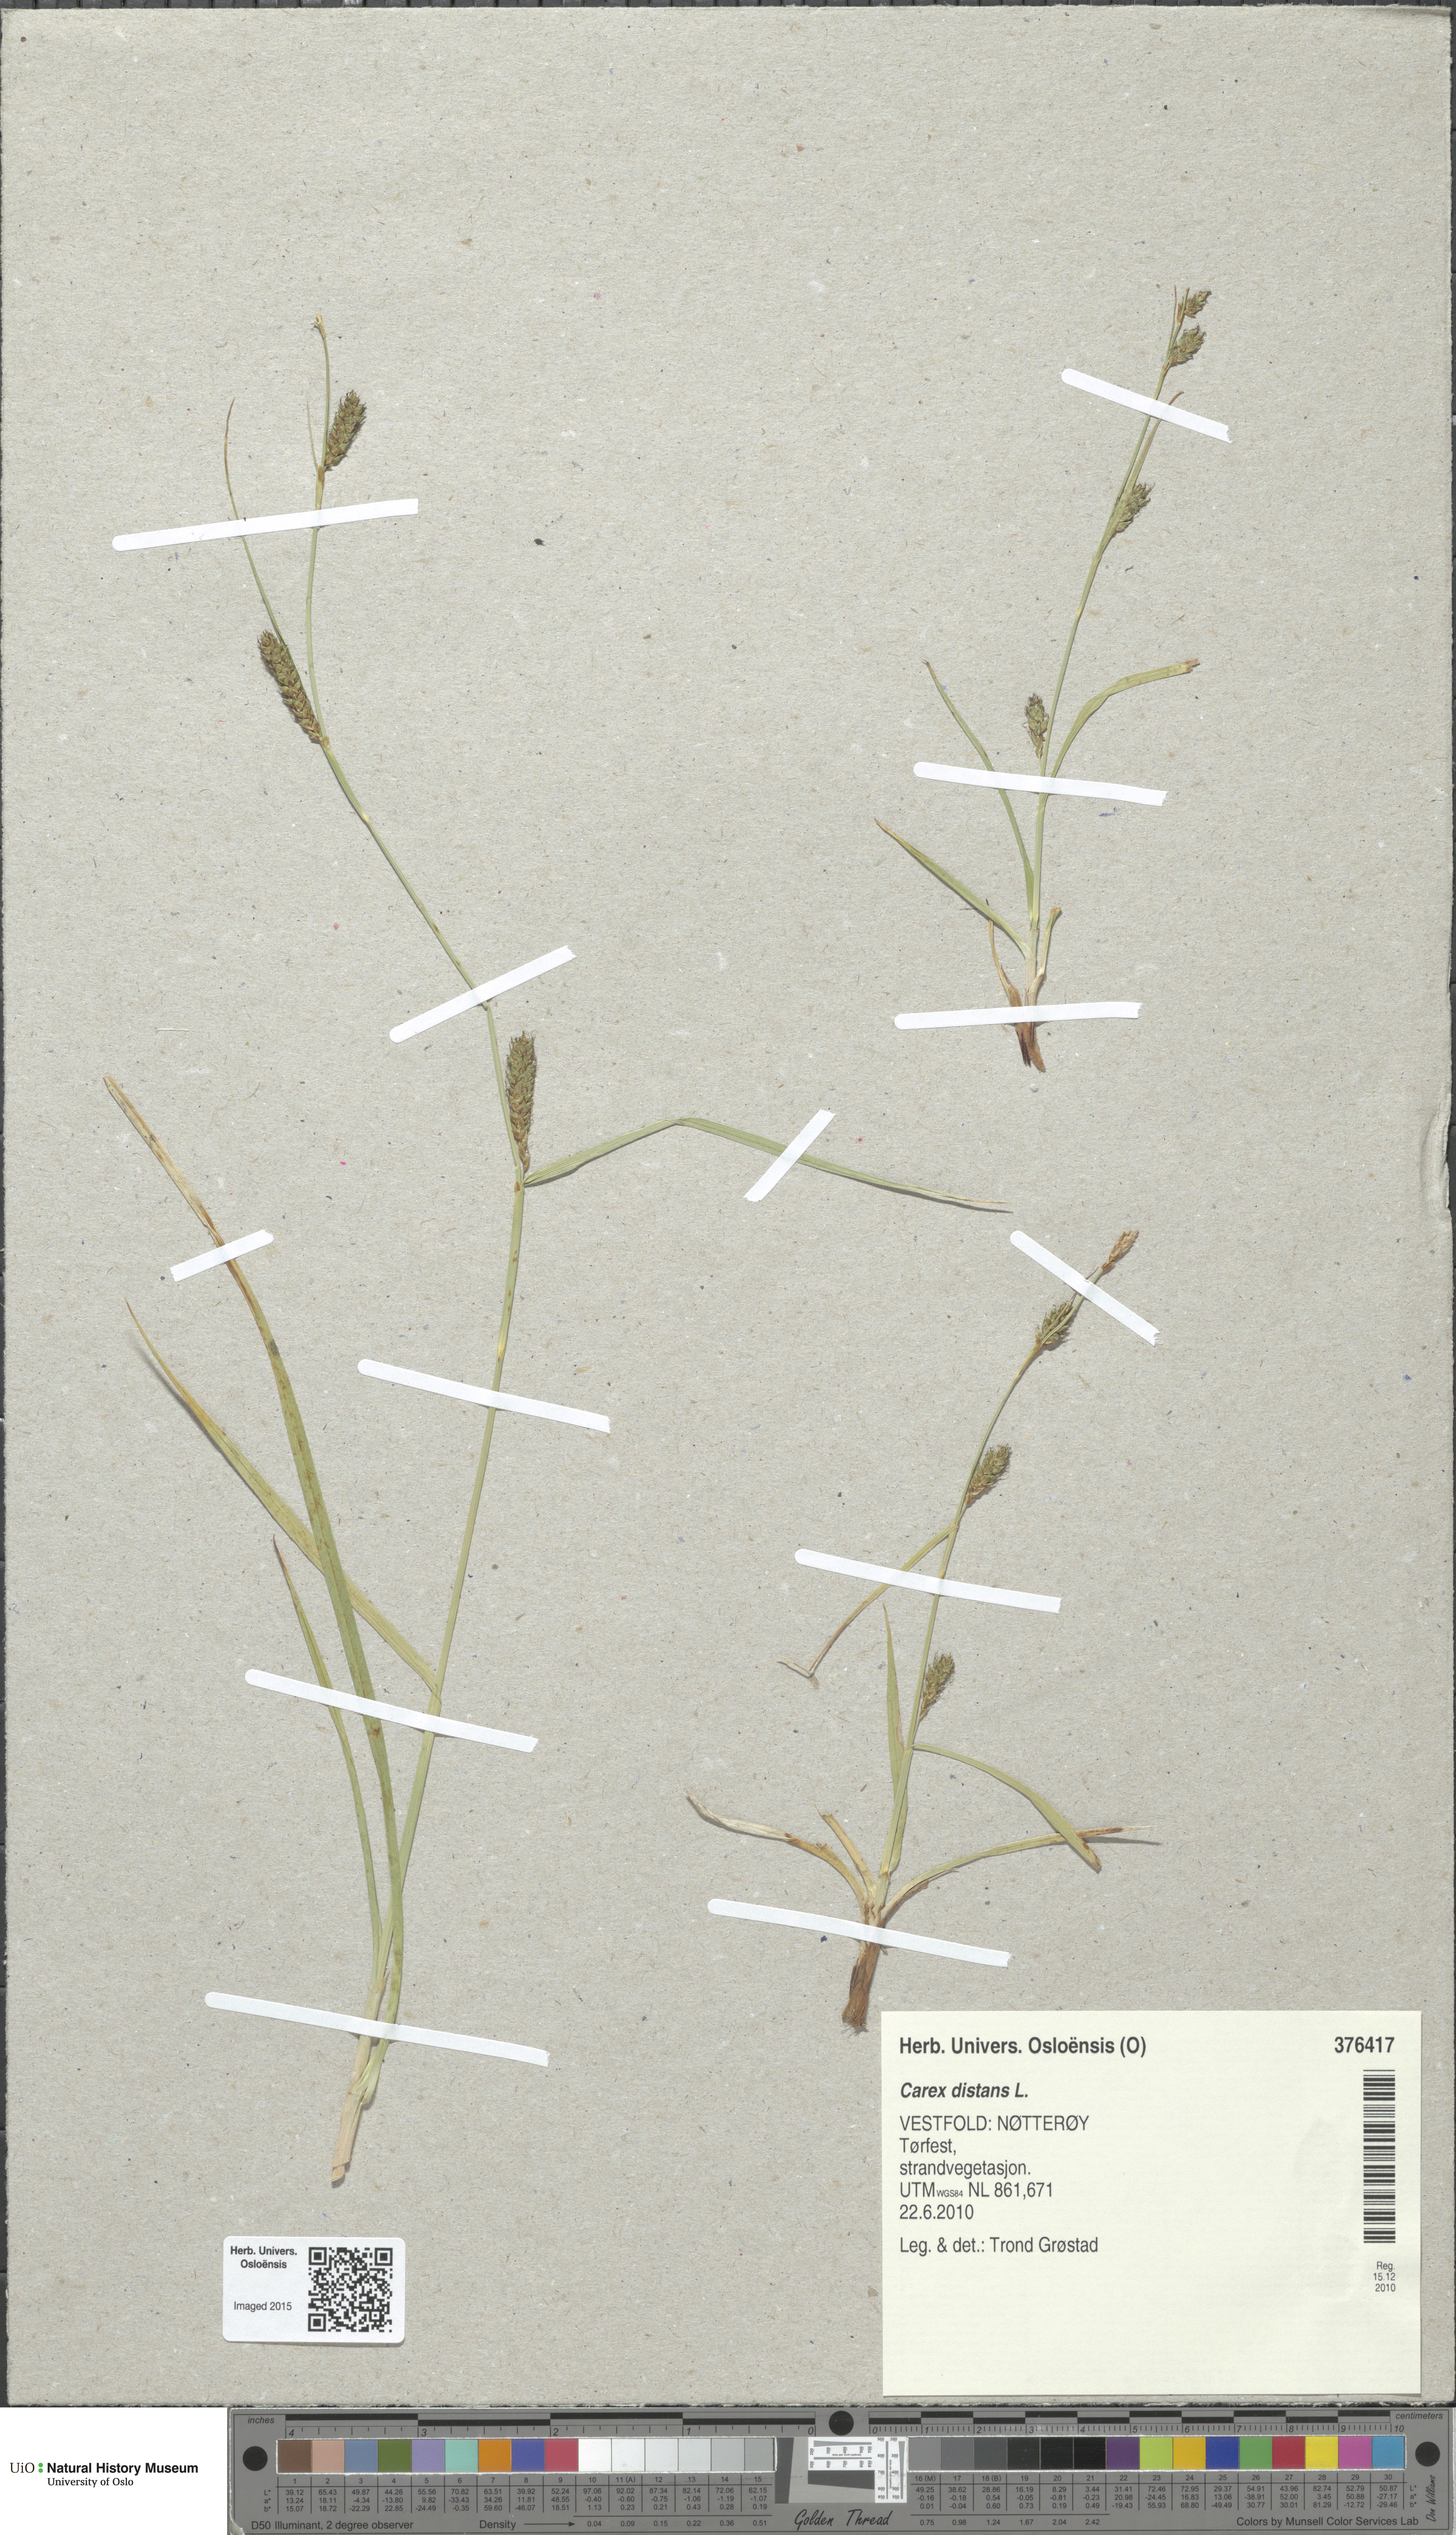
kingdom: Plantae
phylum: Tracheophyta
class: Liliopsida
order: Poales
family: Cyperaceae
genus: Carex
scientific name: Carex distans
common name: Distant sedge
